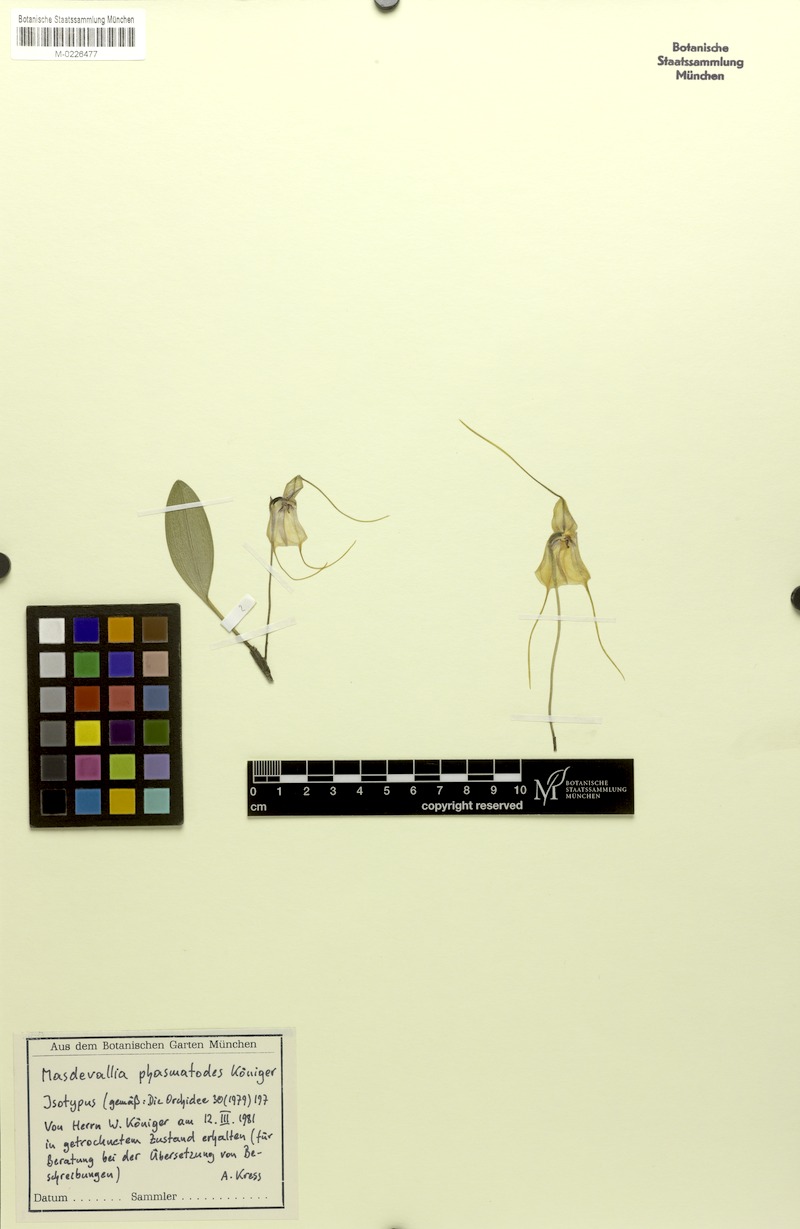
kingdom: Plantae
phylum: Tracheophyta
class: Liliopsida
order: Asparagales
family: Orchidaceae
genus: Masdevallia
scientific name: Masdevallia phasmatodes
